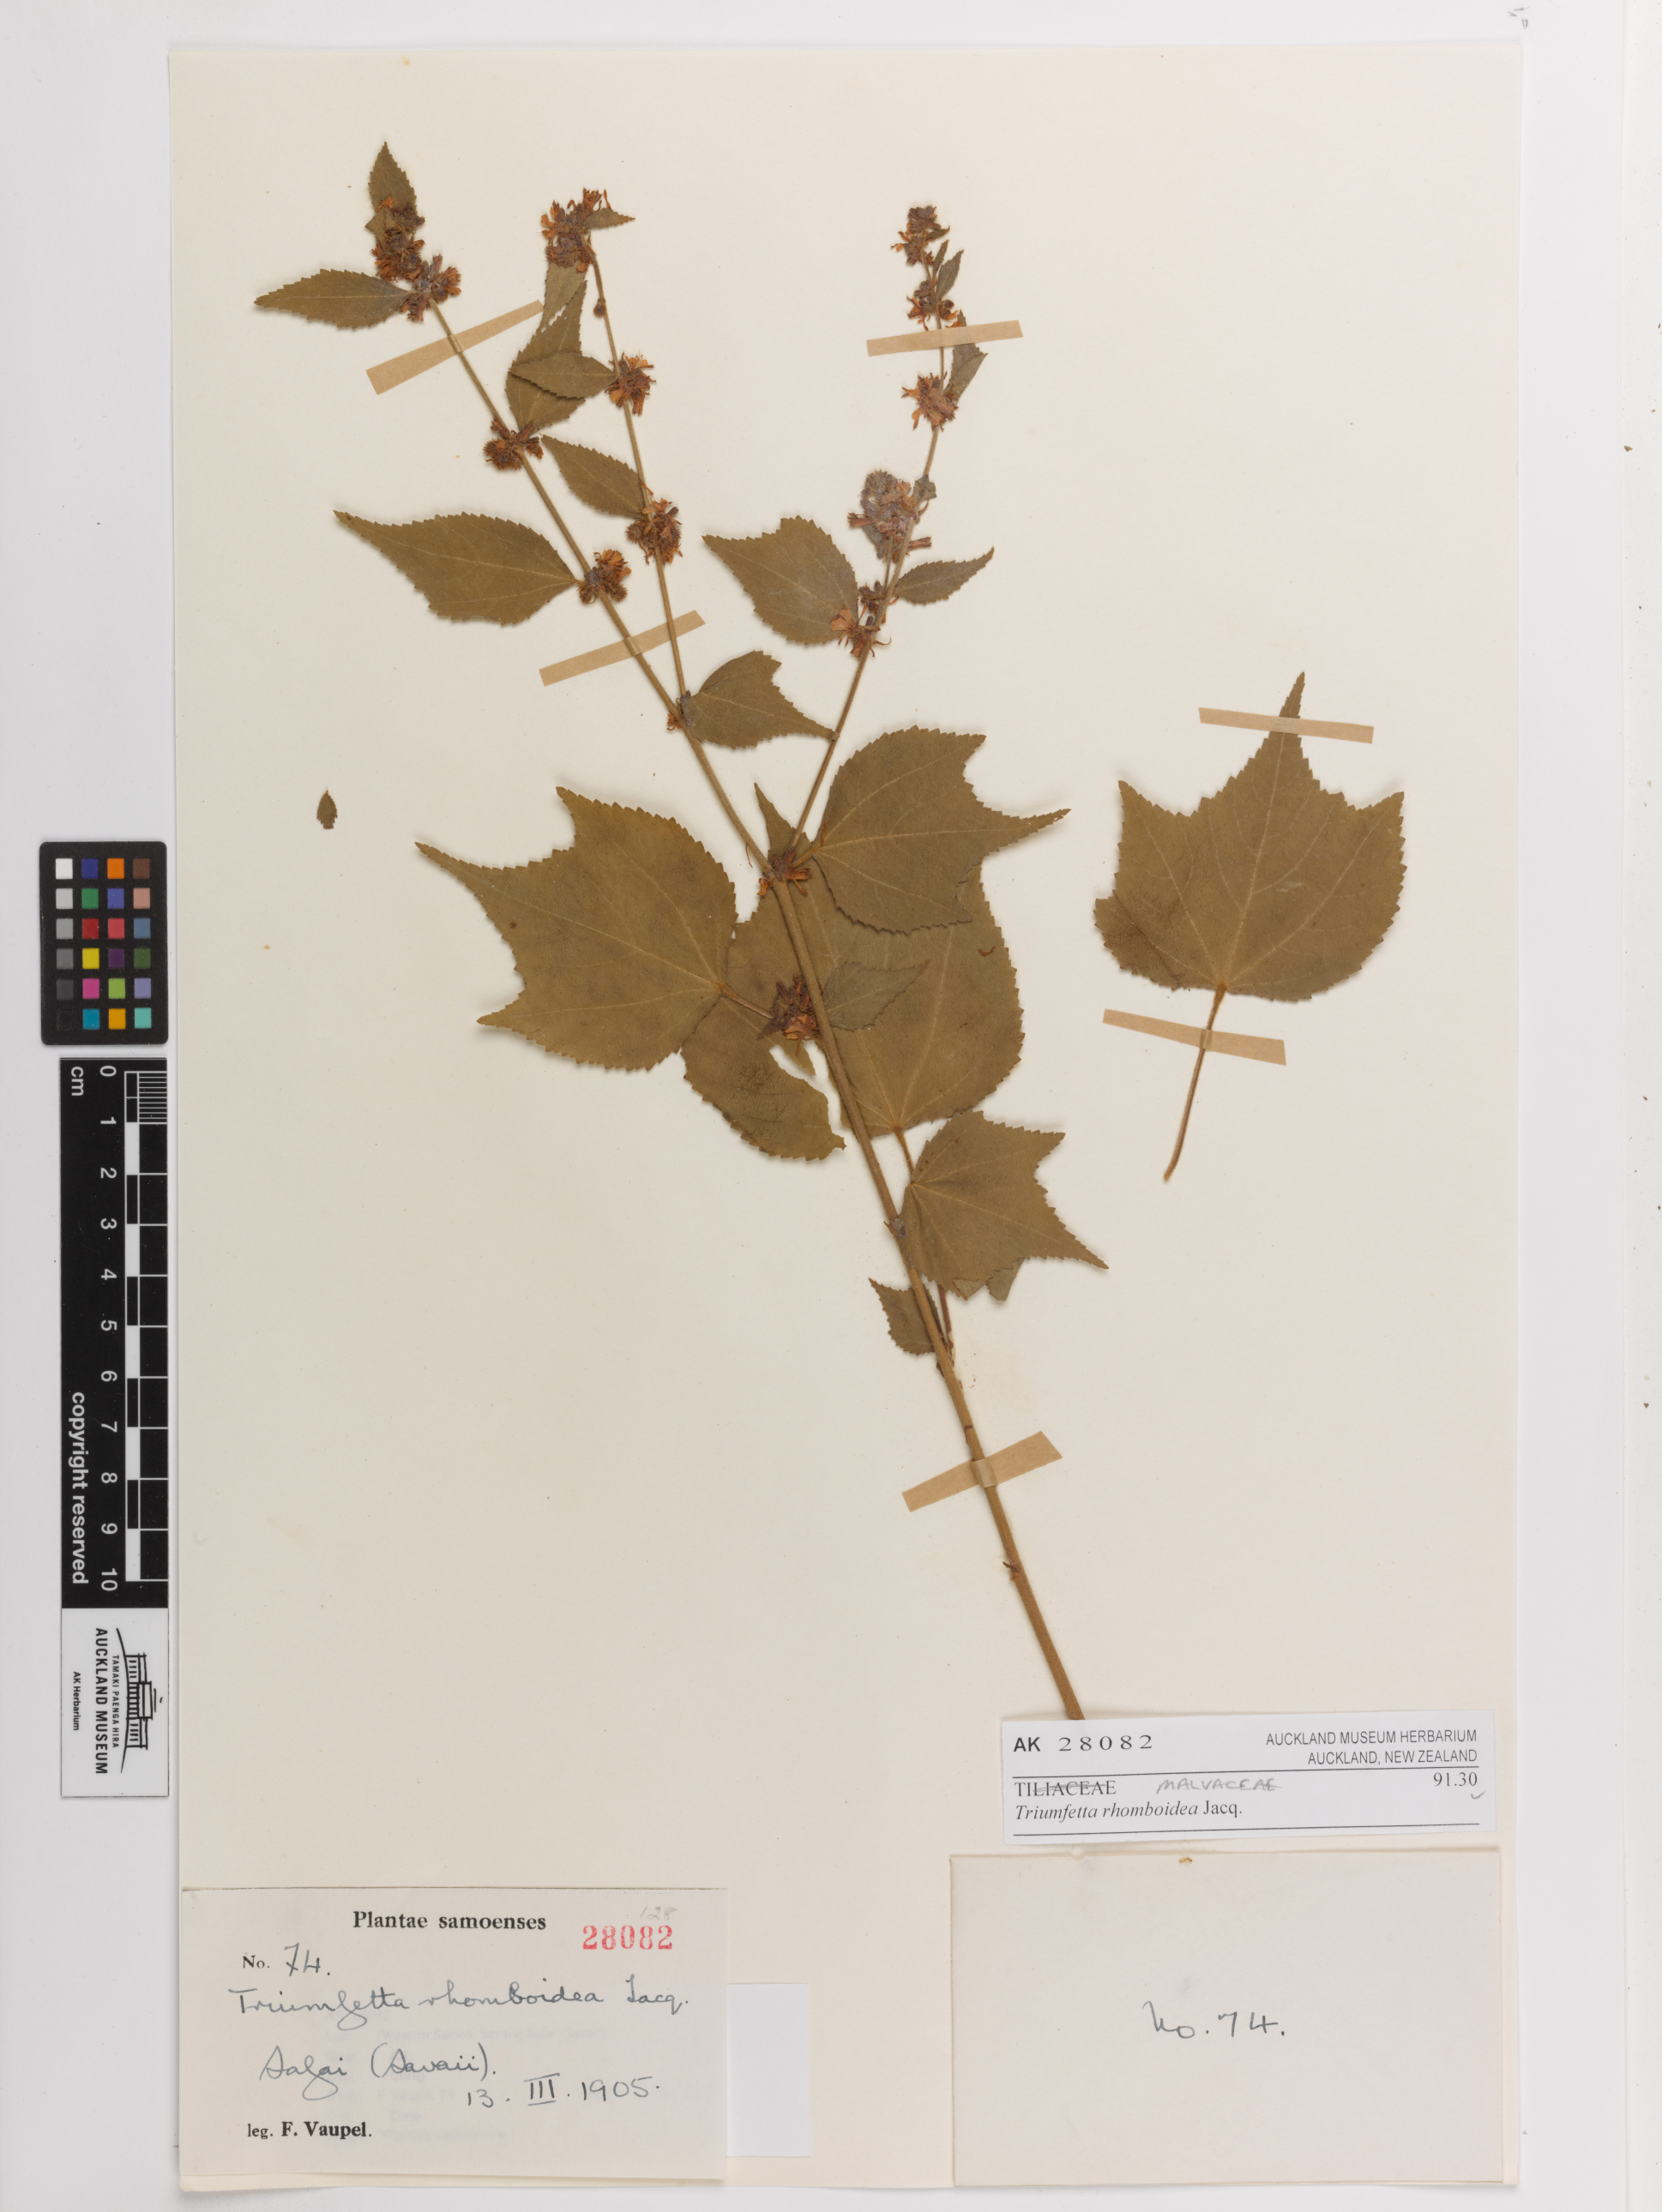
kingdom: Plantae
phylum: Tracheophyta
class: Magnoliopsida
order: Malvales
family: Malvaceae
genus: Triumfetta
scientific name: Triumfetta rhomboidea
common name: Diamond burbark
